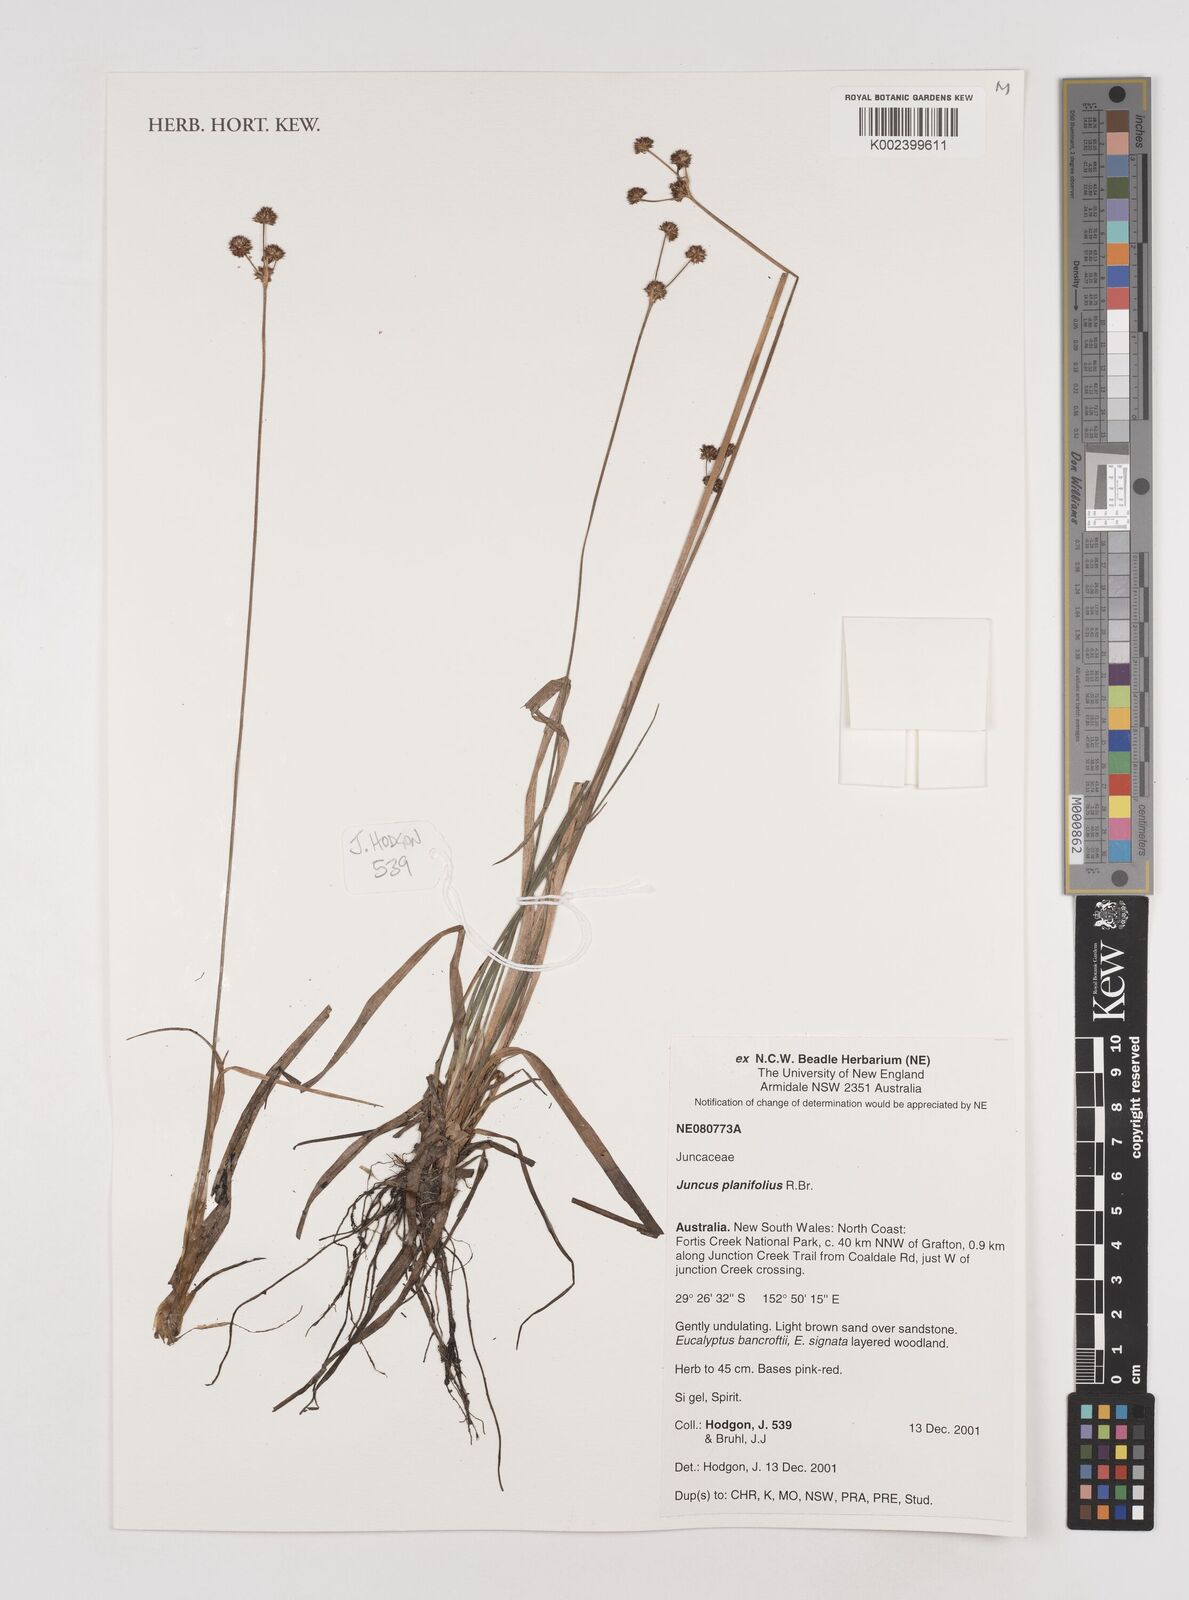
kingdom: Plantae
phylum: Tracheophyta
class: Liliopsida
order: Poales
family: Juncaceae
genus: Juncus
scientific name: Juncus planifolius
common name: Broadleaf rush
